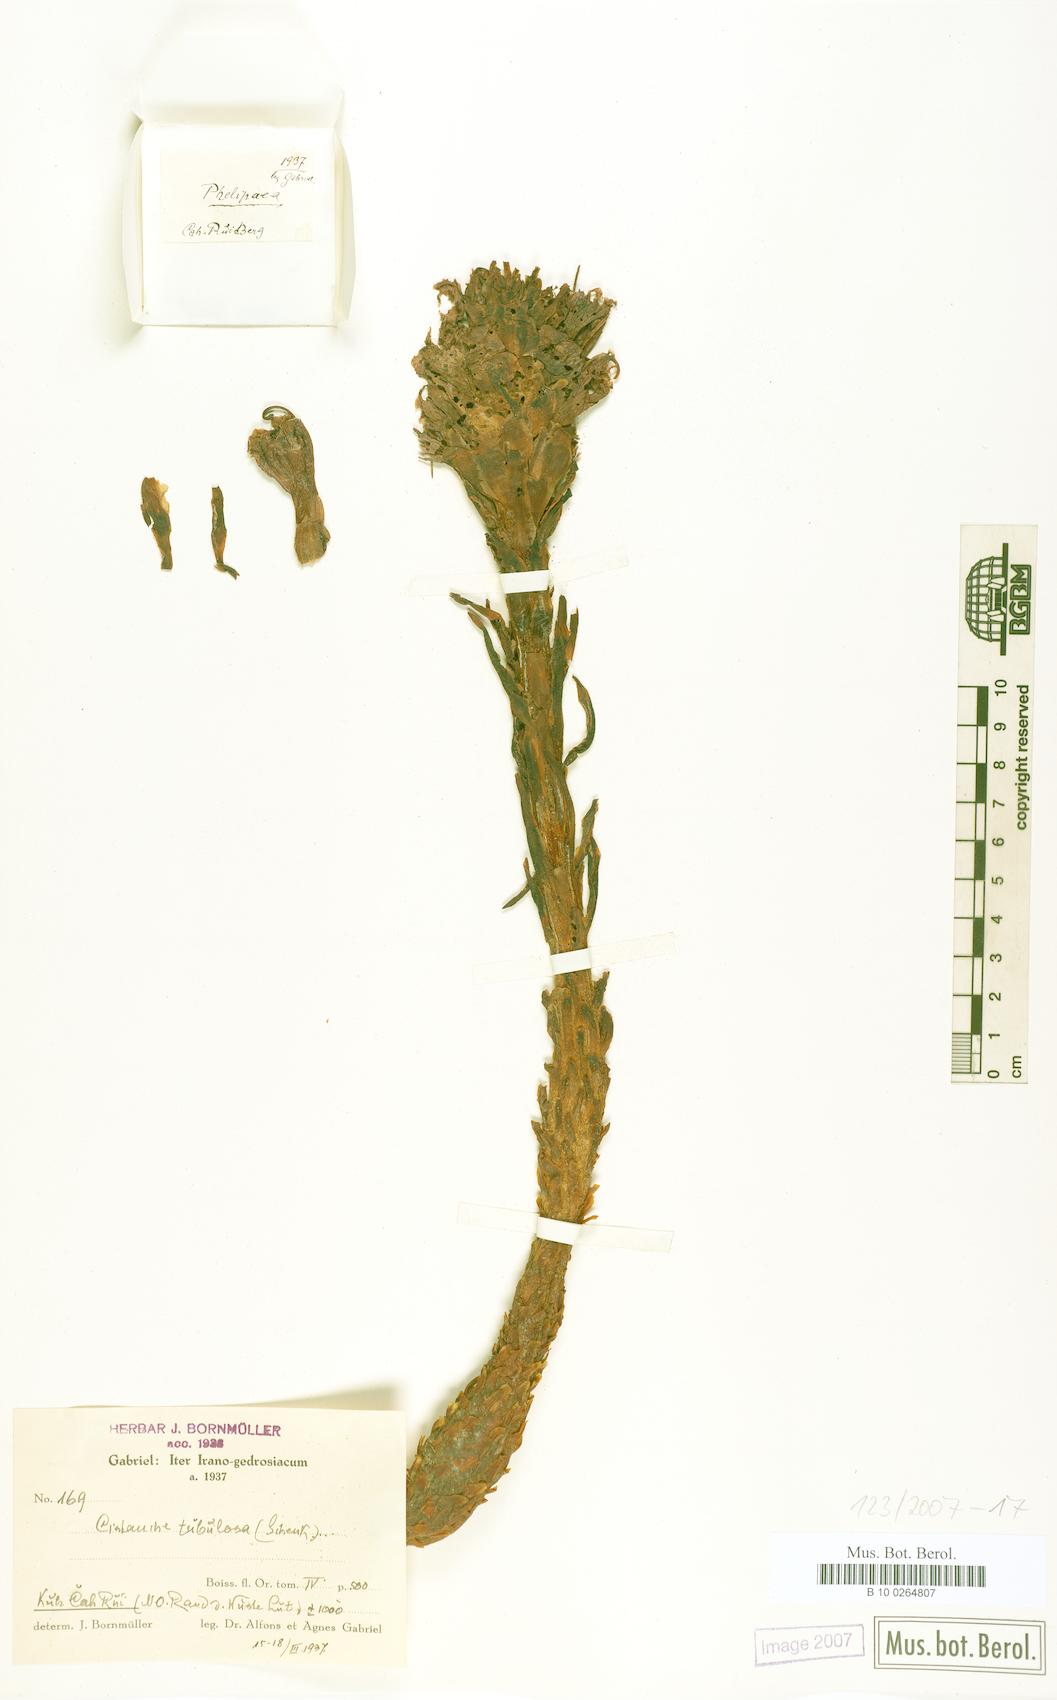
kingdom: Plantae
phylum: Tracheophyta
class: Magnoliopsida
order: Lamiales
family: Orobanchaceae
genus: Cistanche
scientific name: Cistanche flava
